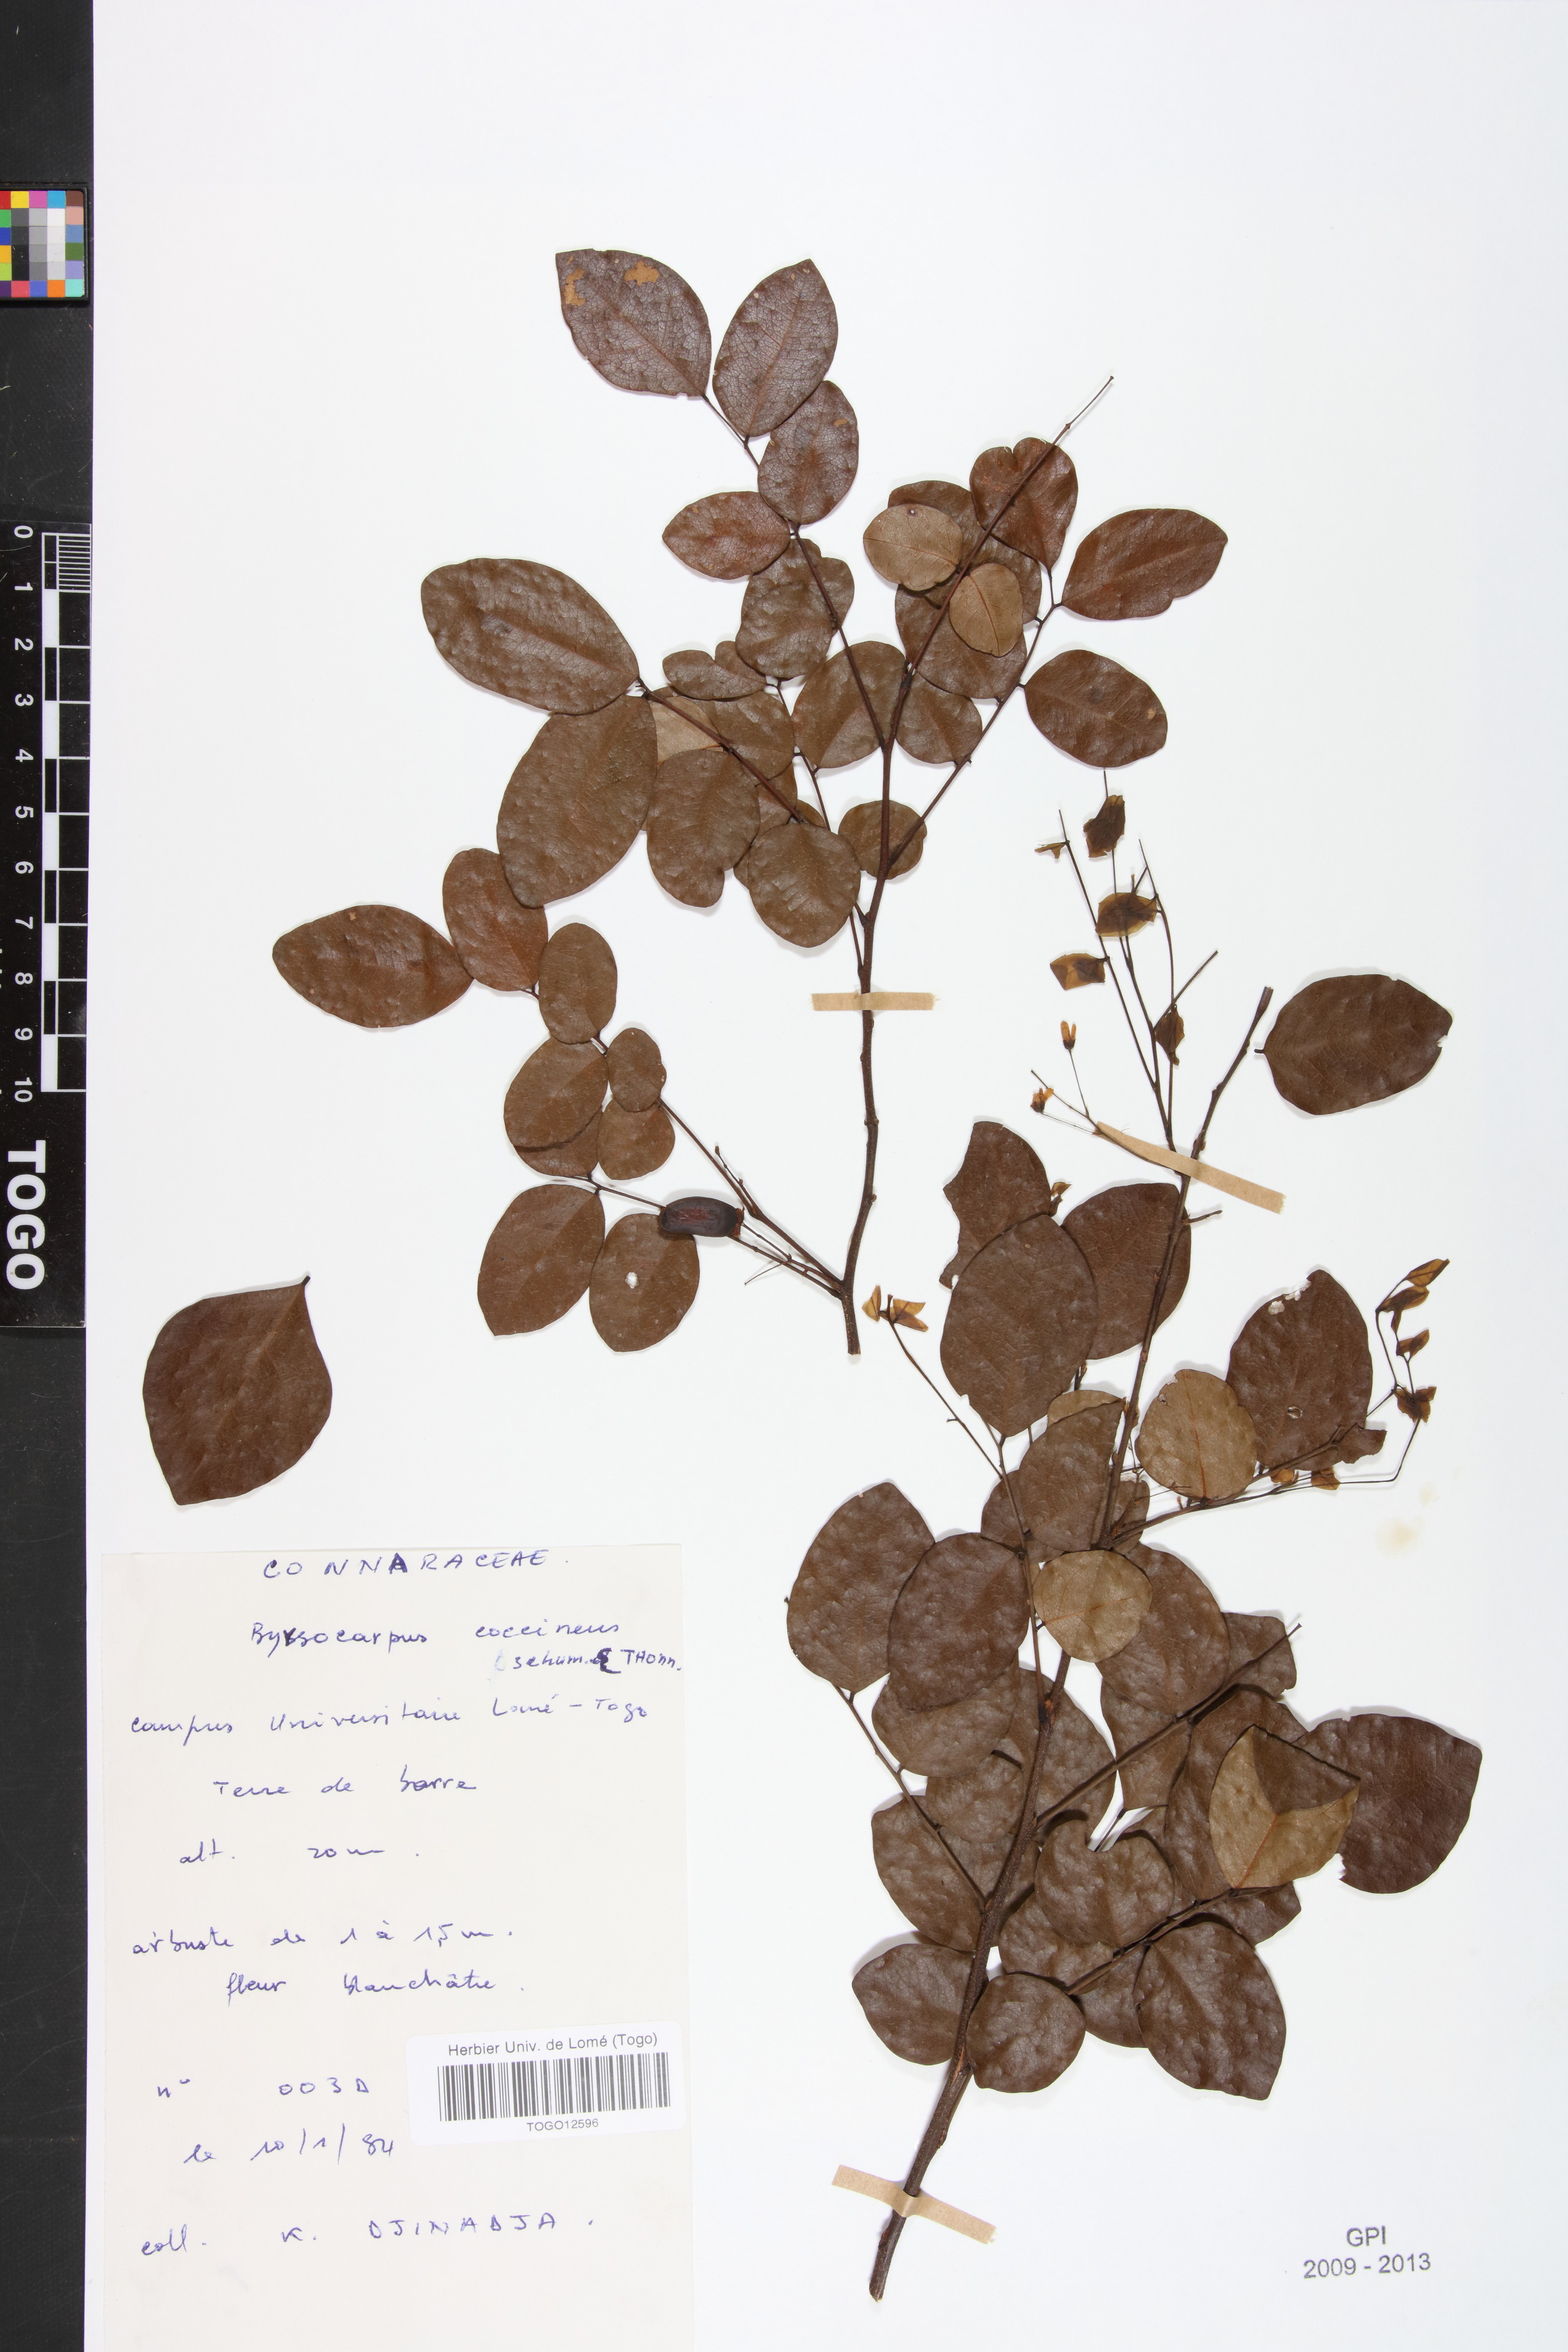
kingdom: Plantae
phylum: Tracheophyta
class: Magnoliopsida
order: Oxalidales
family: Connaraceae
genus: Rourea
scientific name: Rourea coccinea
